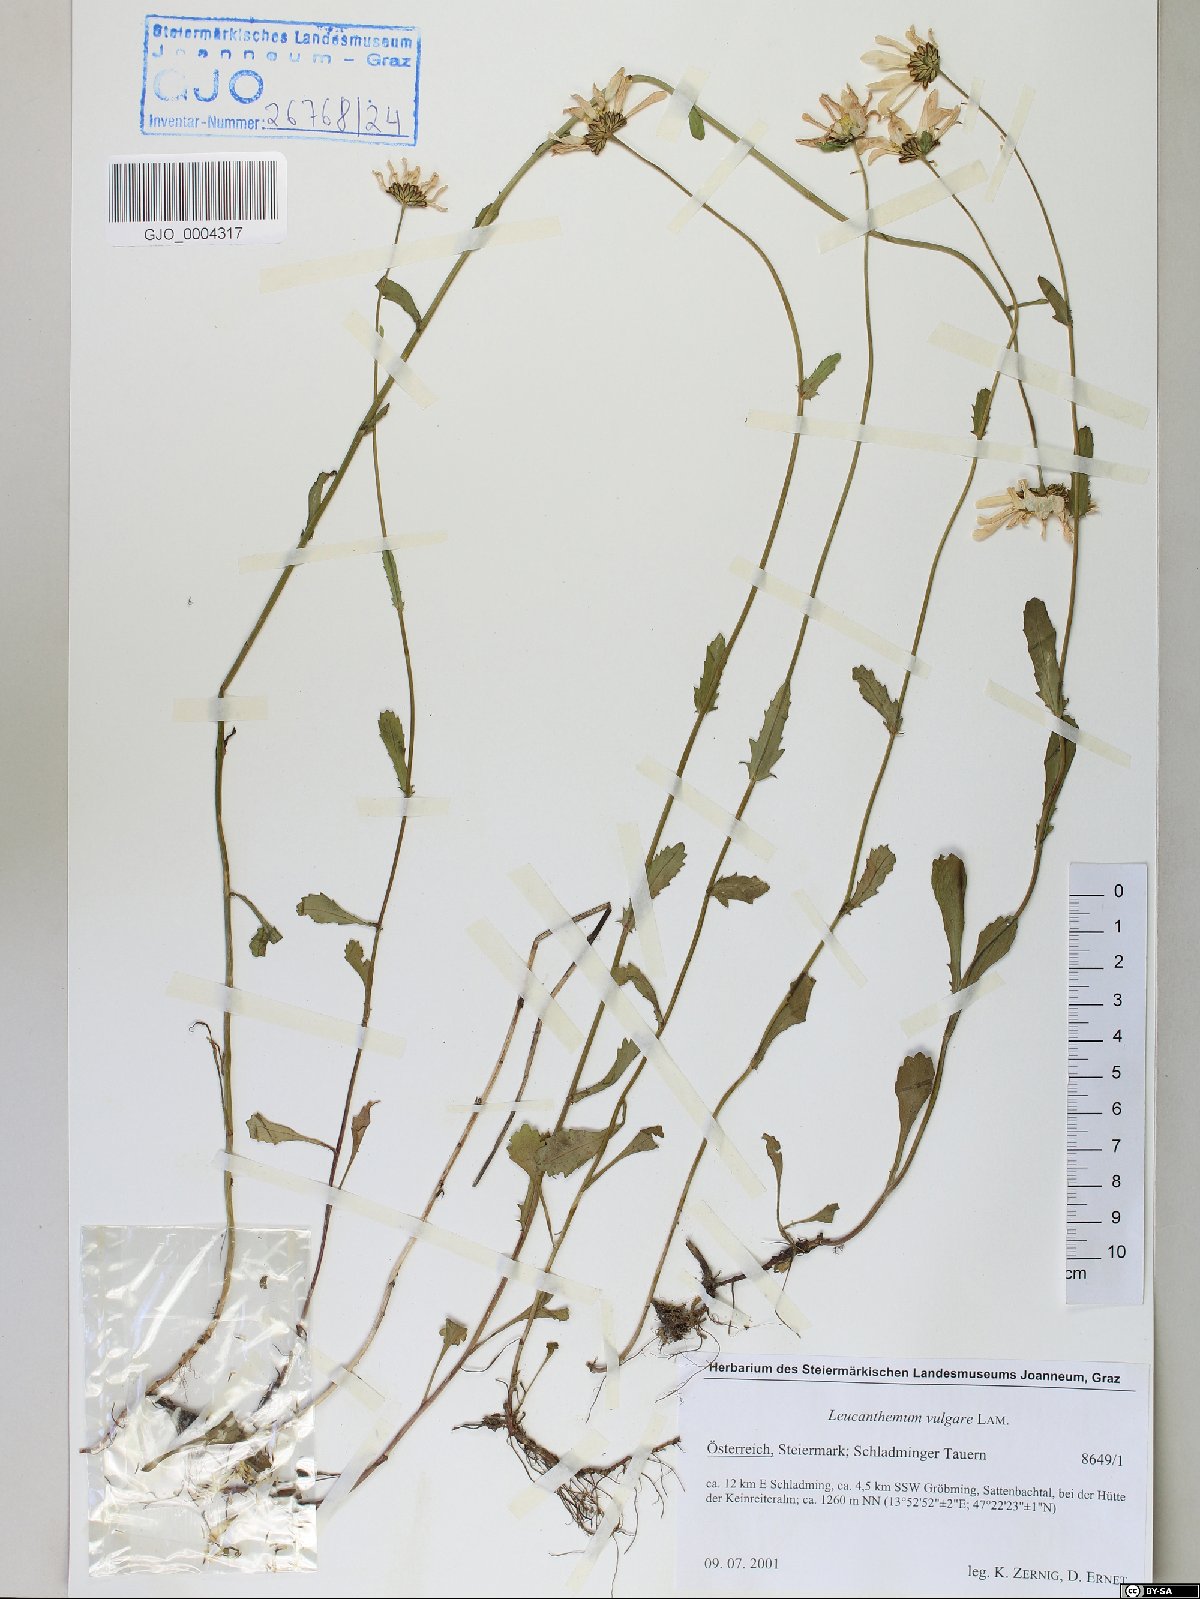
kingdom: Plantae
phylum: Tracheophyta
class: Magnoliopsida
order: Asterales
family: Asteraceae
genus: Leucanthemum
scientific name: Leucanthemum vulgare
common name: Oxeye daisy
